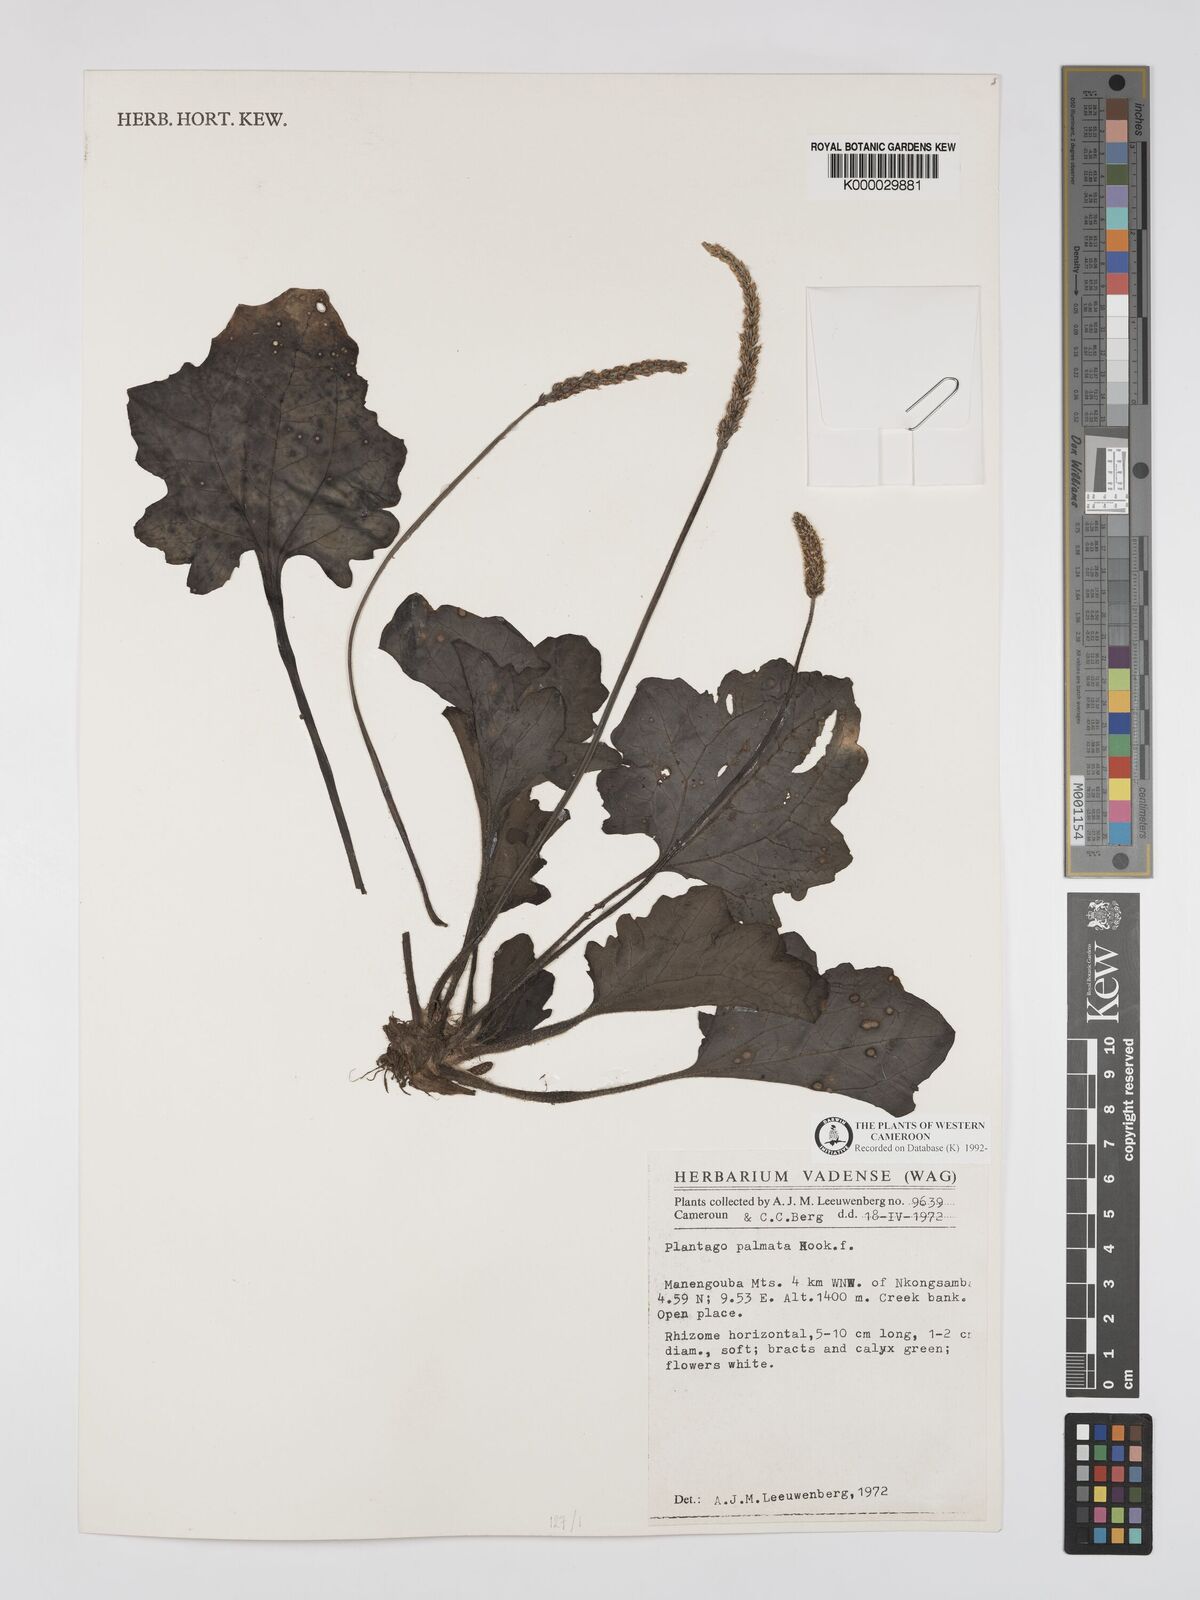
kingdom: Plantae
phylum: Tracheophyta
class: Magnoliopsida
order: Lamiales
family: Plantaginaceae
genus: Plantago
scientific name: Plantago palmata
